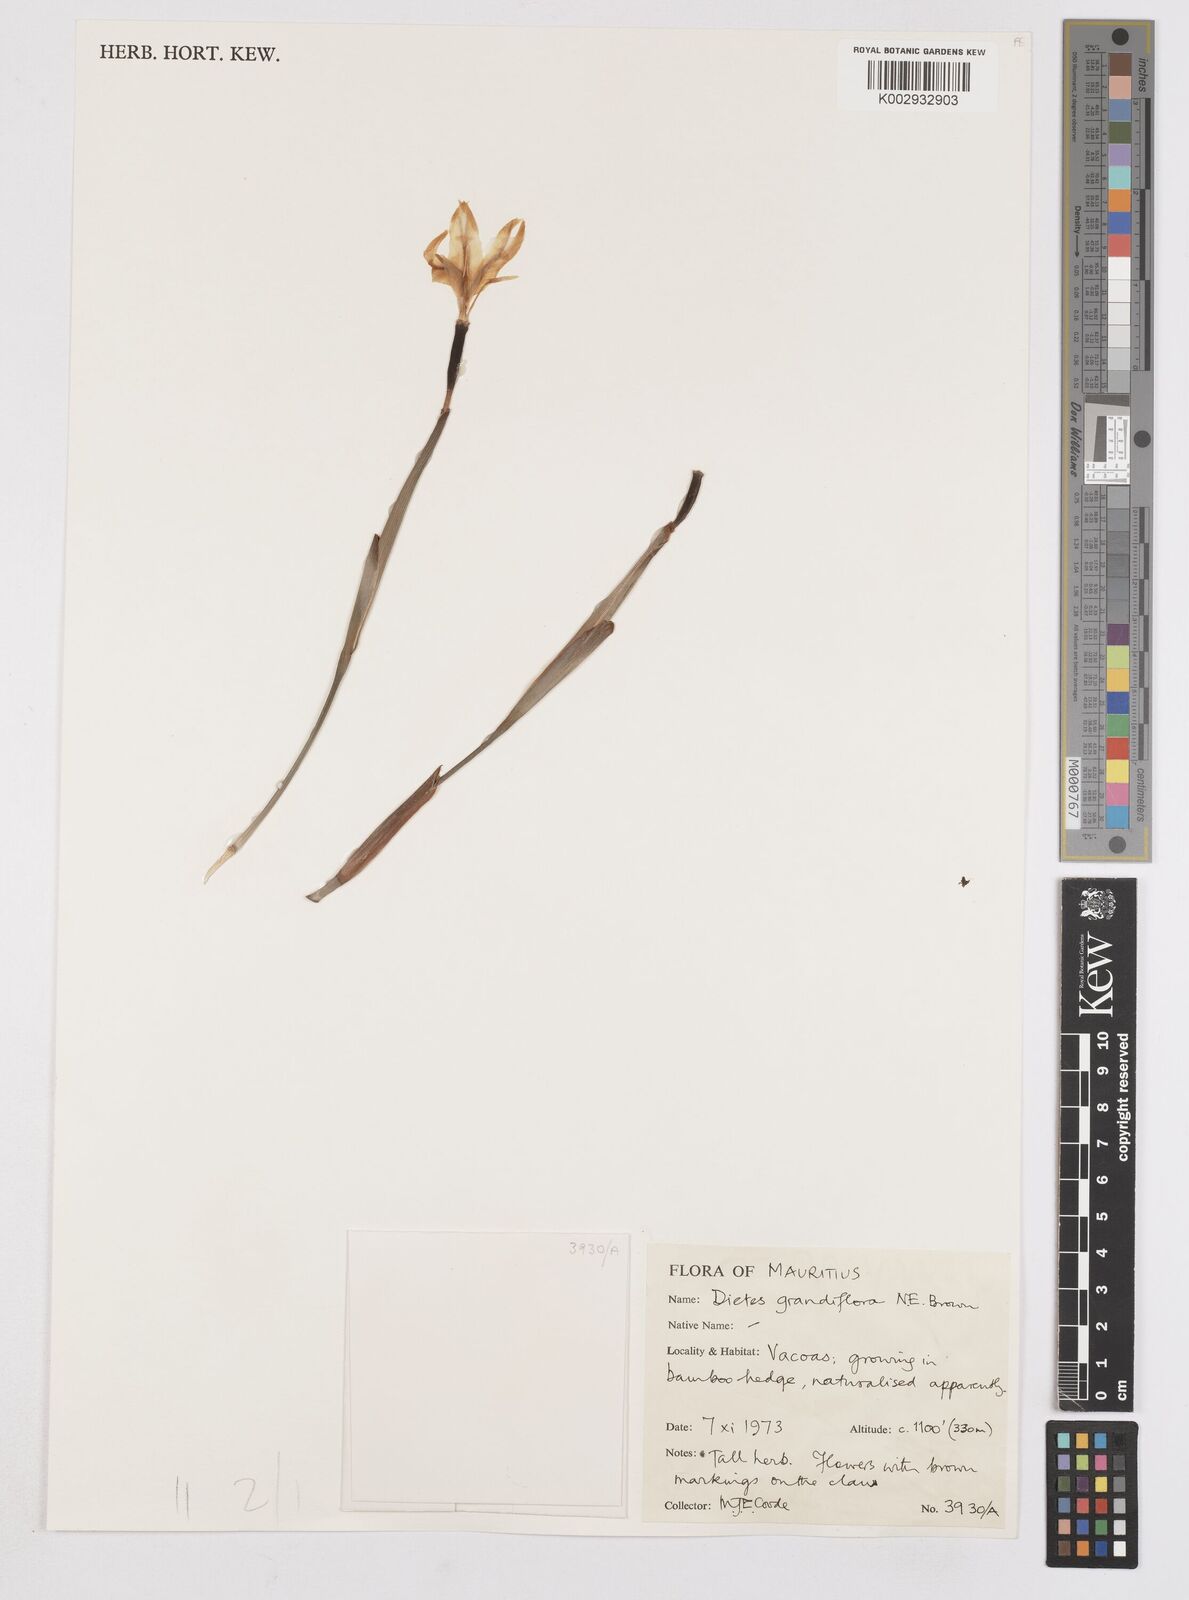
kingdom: Plantae
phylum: Tracheophyta
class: Liliopsida
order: Asparagales
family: Iridaceae
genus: Dietes
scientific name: Dietes grandiflora
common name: Wild iris
